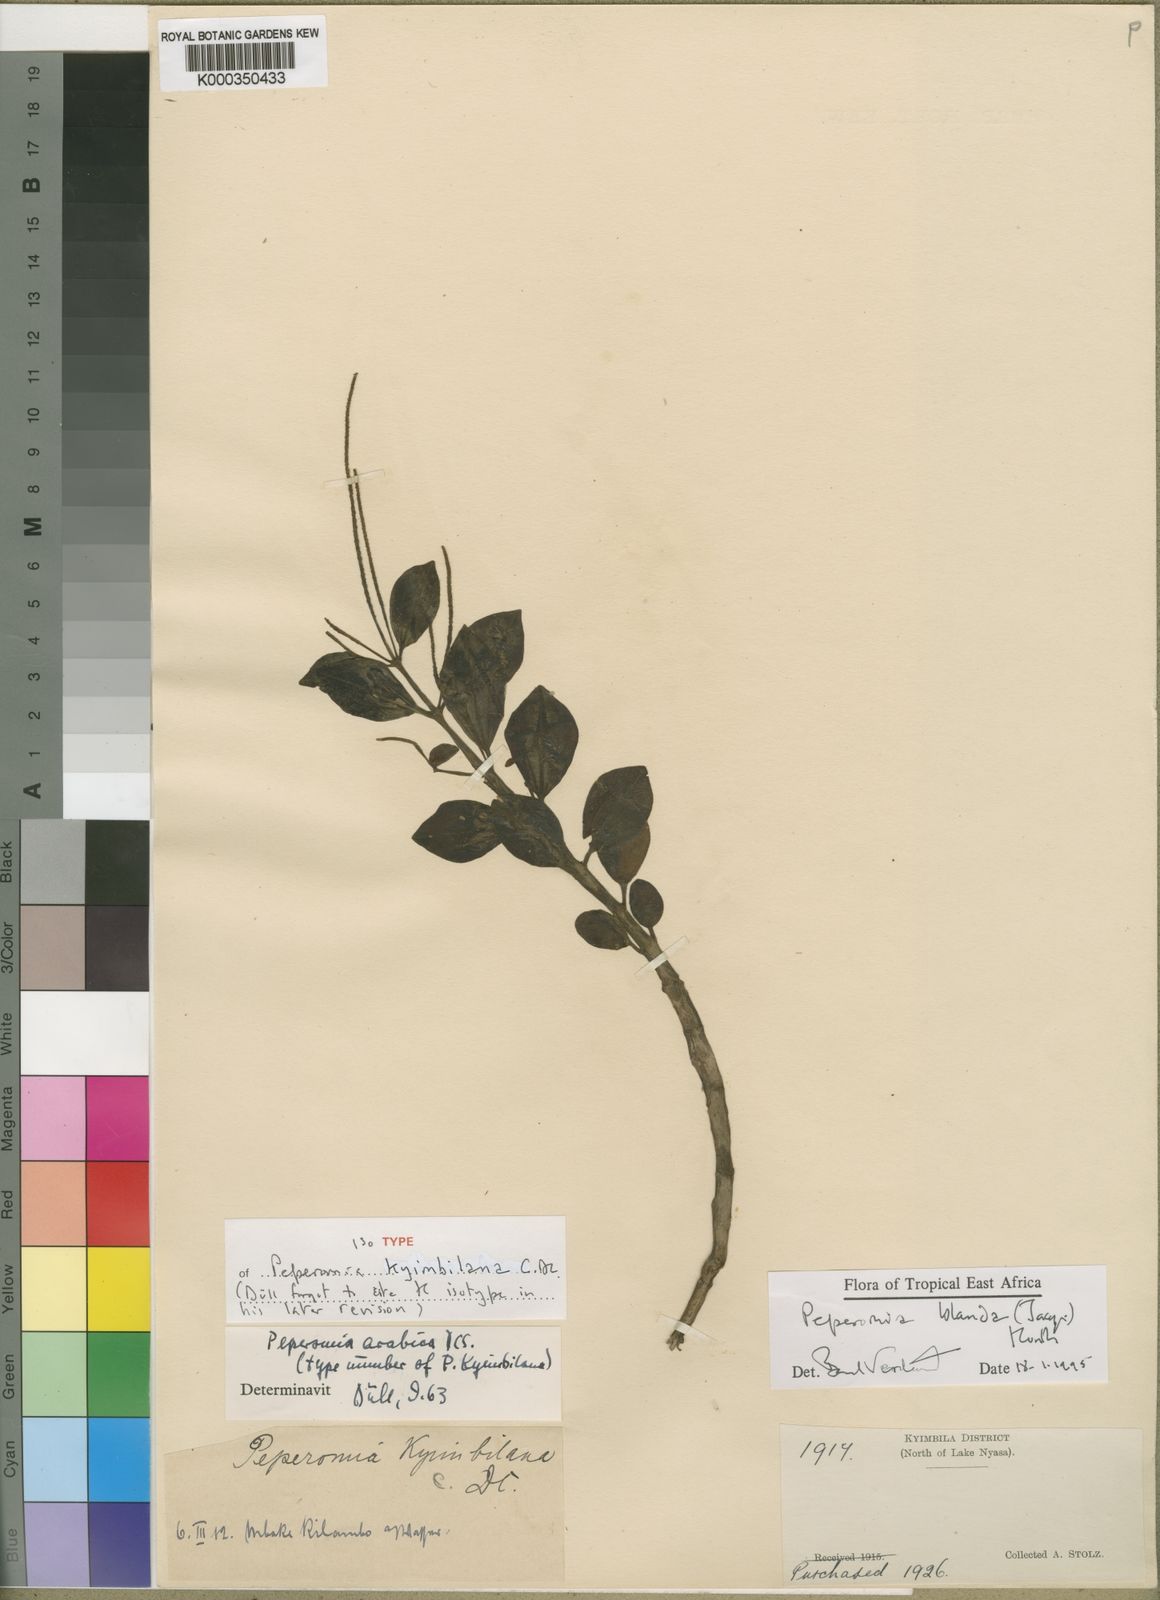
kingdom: Plantae
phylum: Tracheophyta
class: Magnoliopsida
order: Piperales
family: Piperaceae
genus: Peperomia
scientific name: Peperomia leptostachya
